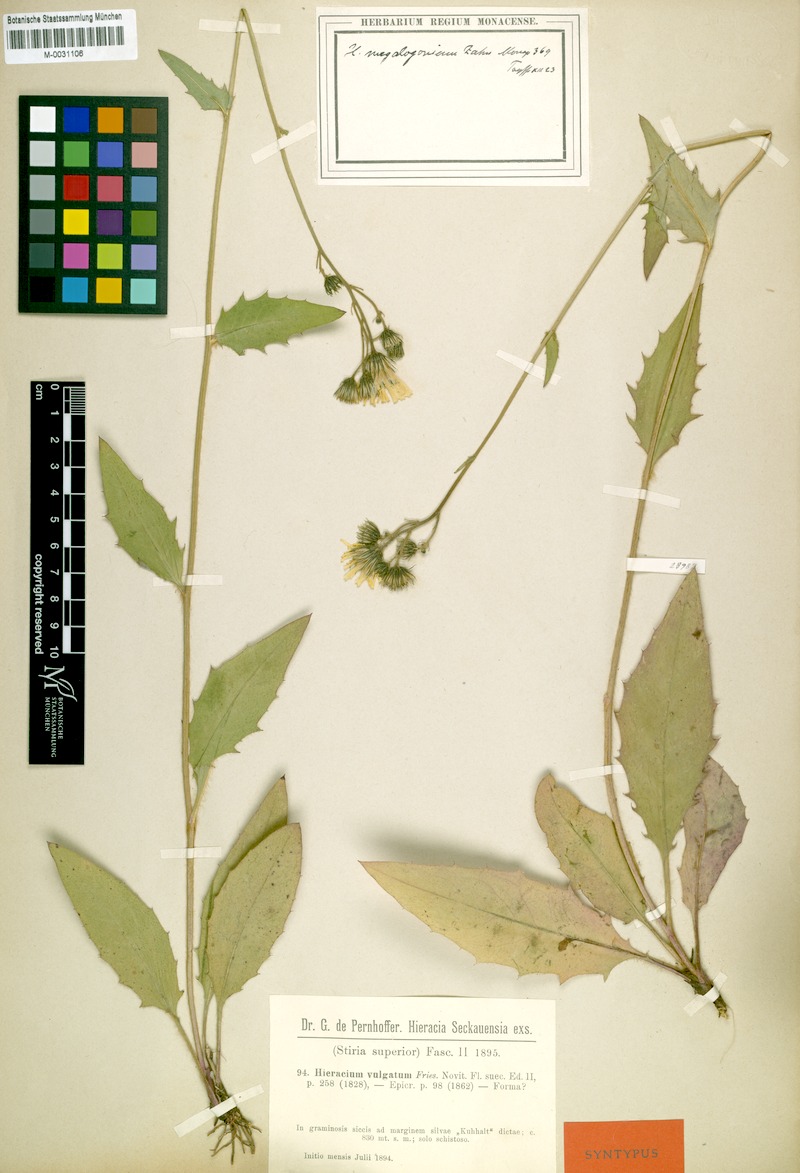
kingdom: Plantae
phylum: Tracheophyta
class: Magnoliopsida
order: Asterales
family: Asteraceae
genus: Hieracium
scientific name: Hieracium lachenalii
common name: Common hawkweed
